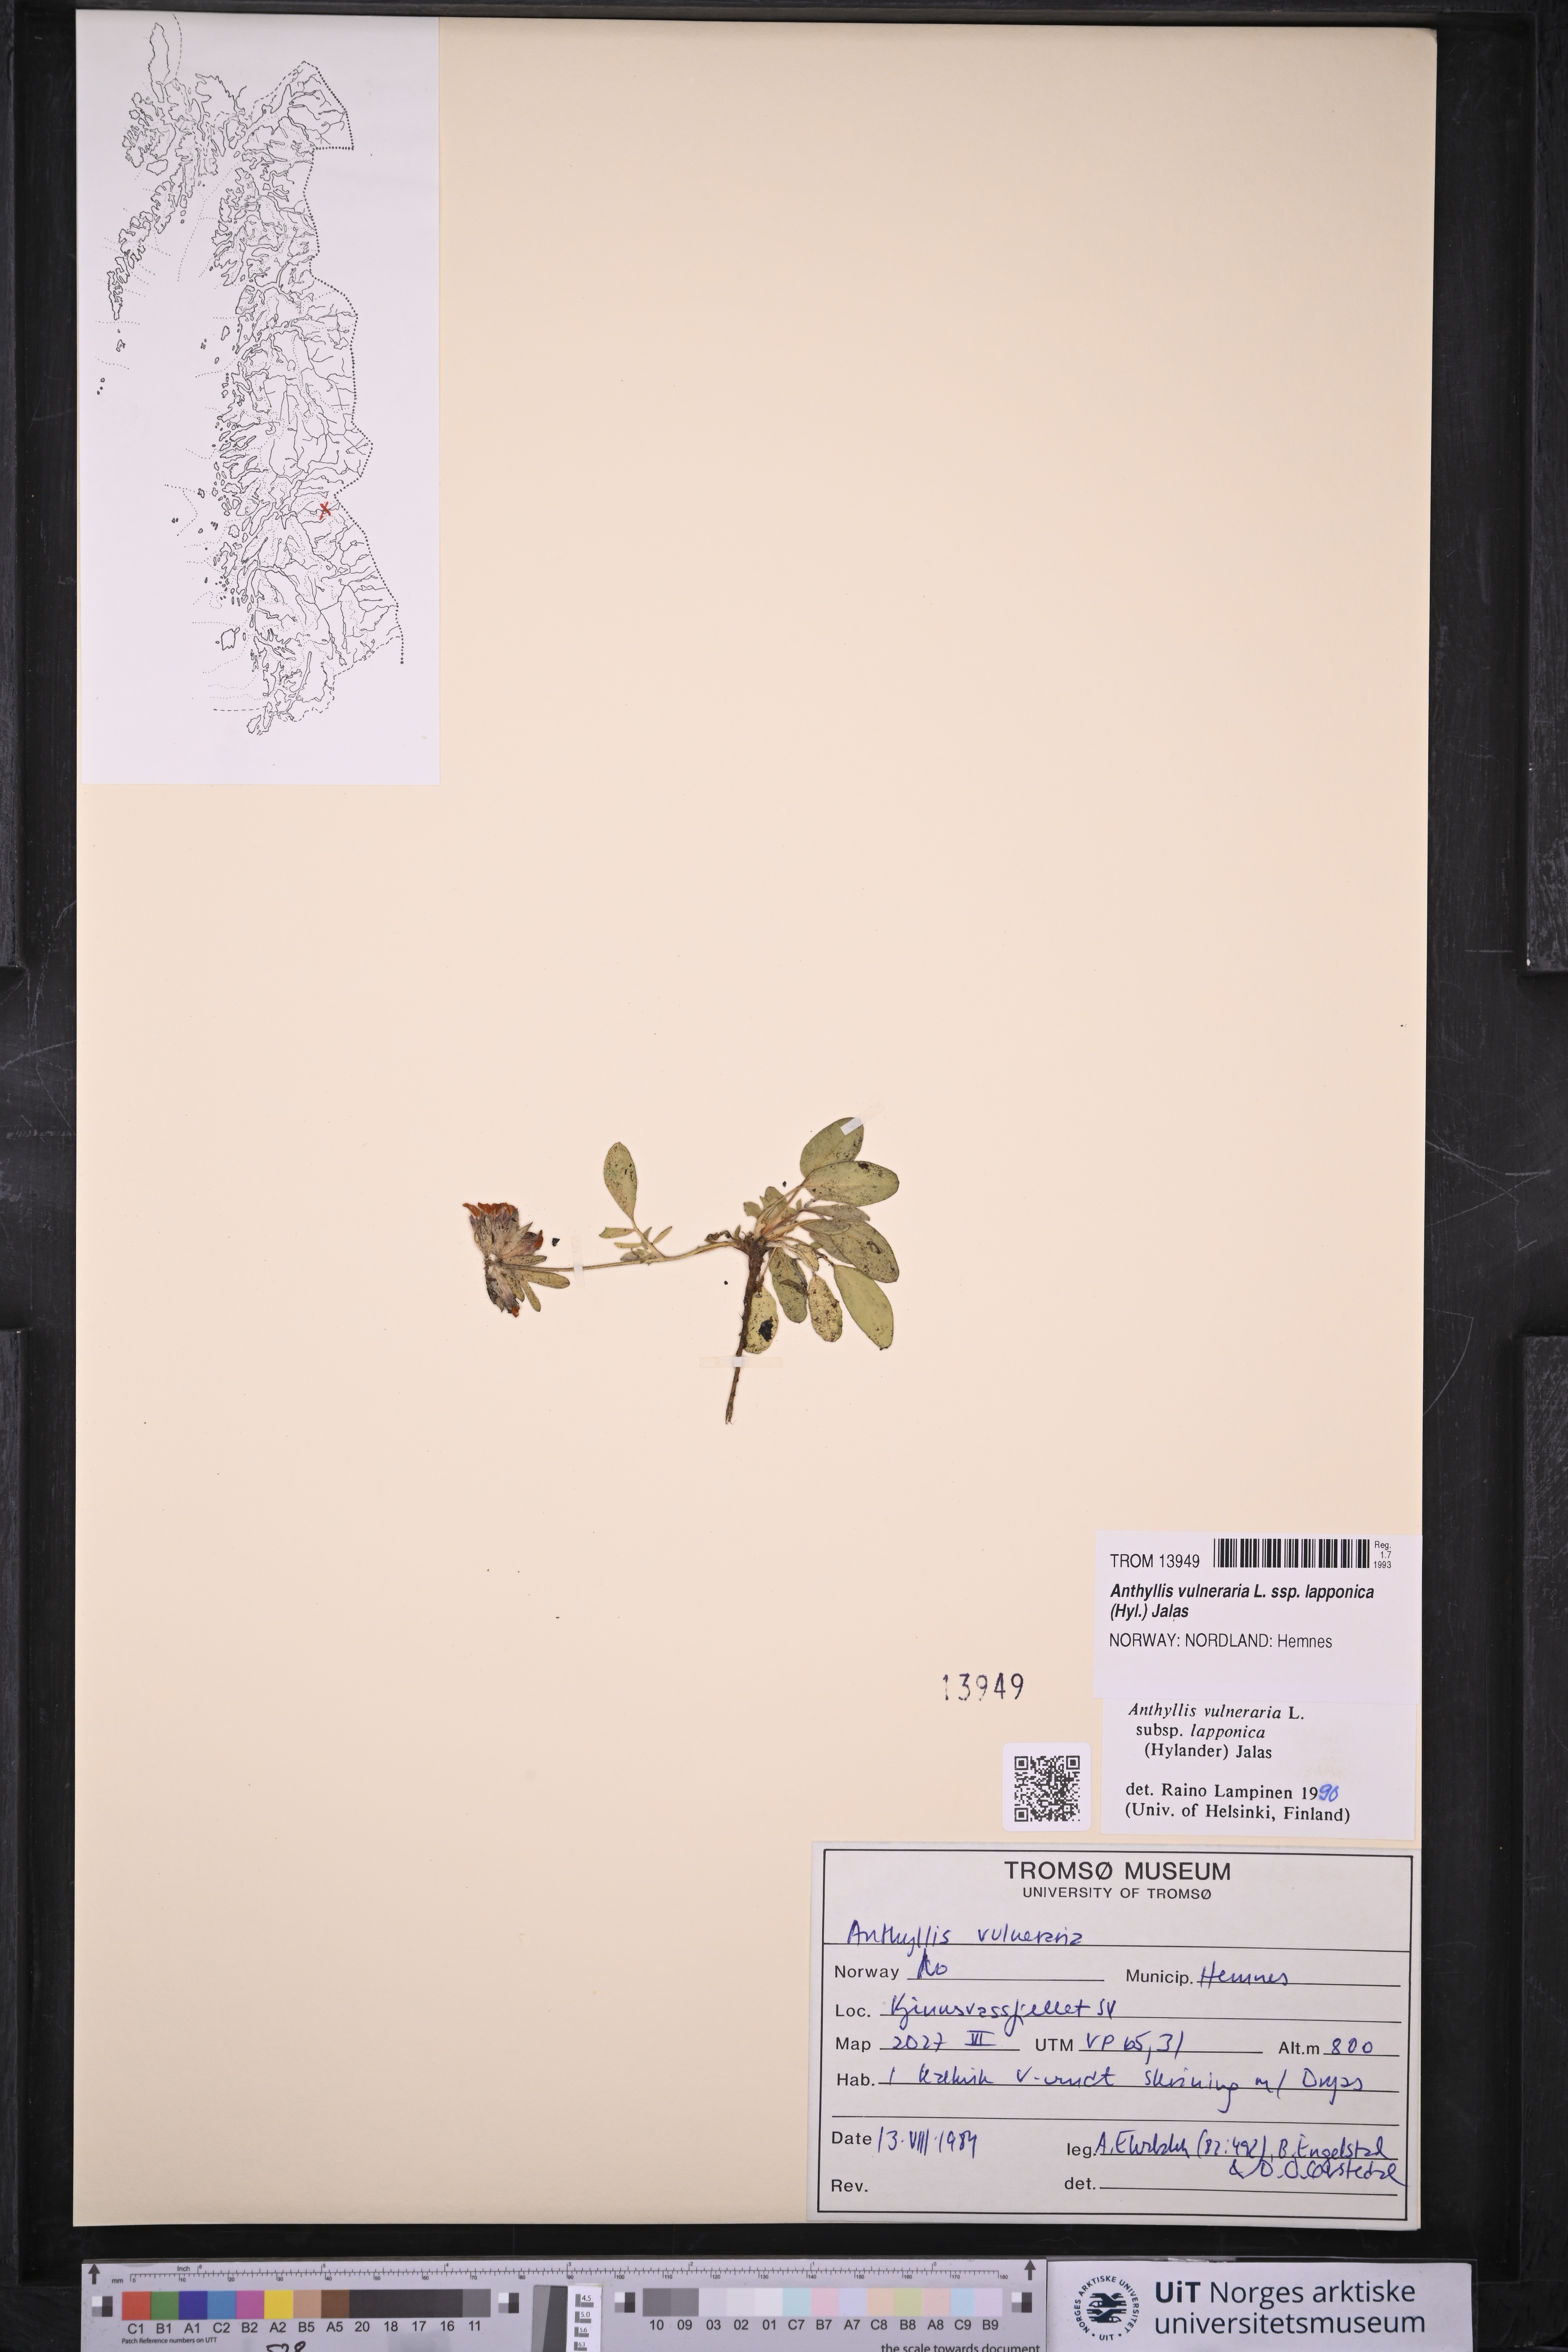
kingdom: Plantae
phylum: Tracheophyta
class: Magnoliopsida
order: Fabales
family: Fabaceae
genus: Anthyllis
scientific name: Anthyllis vulneraria
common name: Kidney vetch
